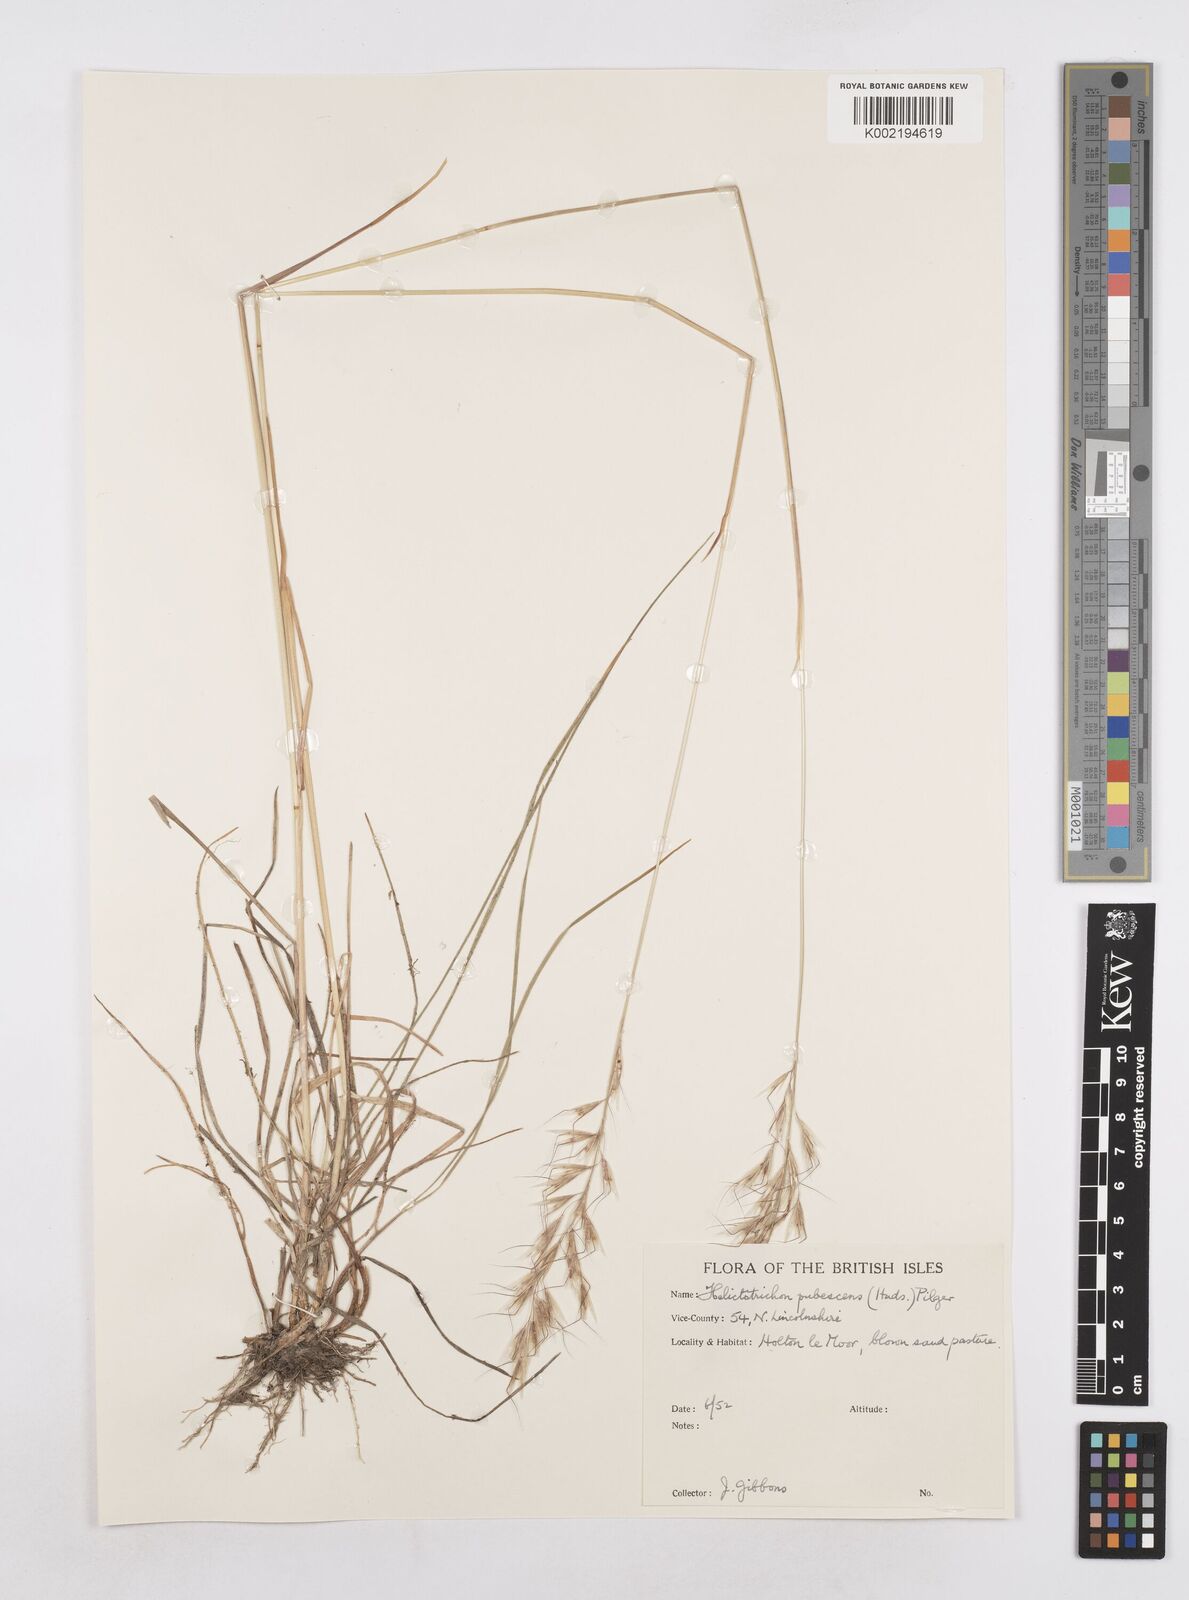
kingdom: Plantae
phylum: Tracheophyta
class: Liliopsida
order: Poales
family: Poaceae
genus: Avenula
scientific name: Avenula pubescens
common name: Downy alpine oatgrass
